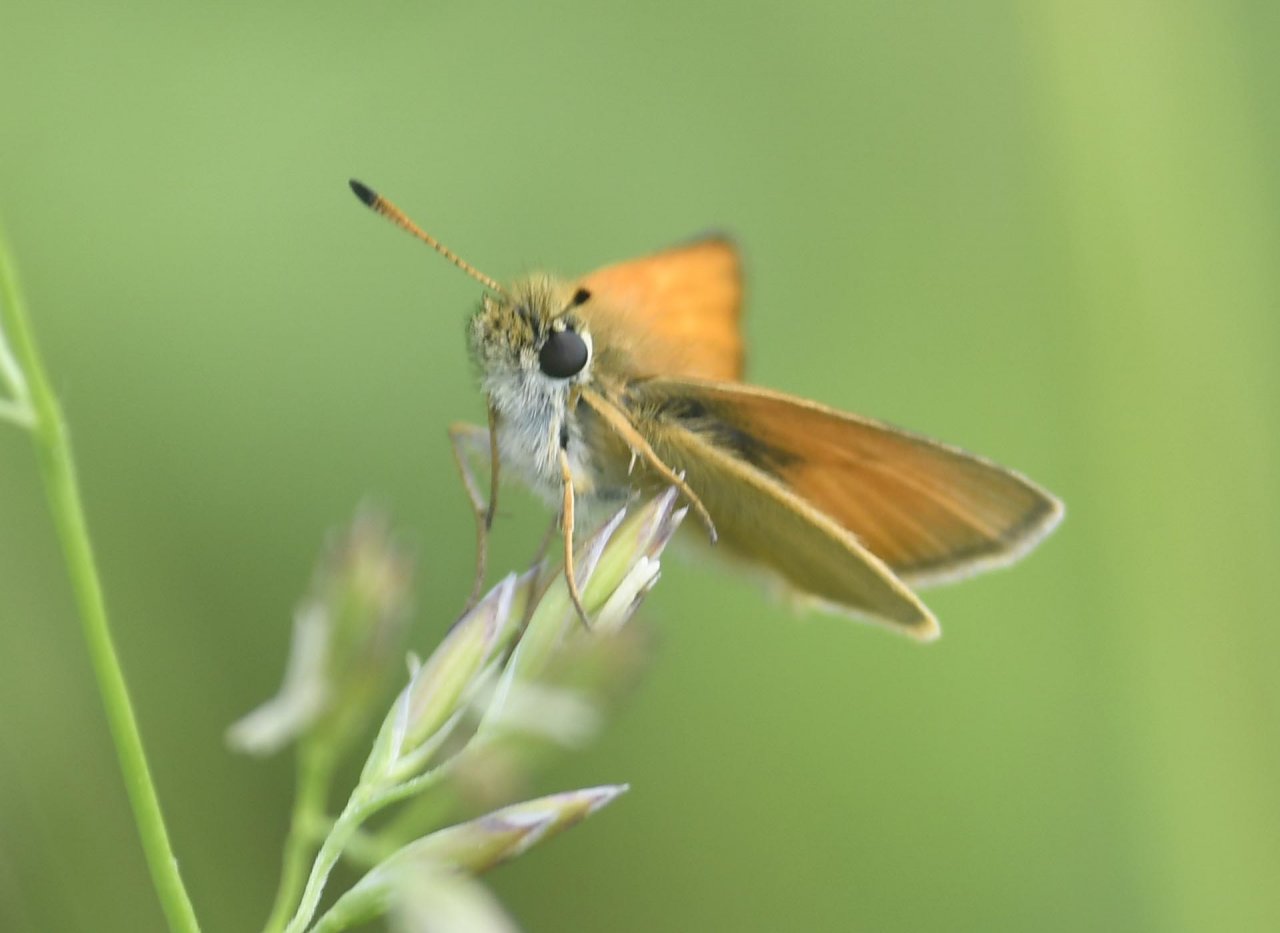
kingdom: Animalia
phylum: Arthropoda
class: Insecta
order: Lepidoptera
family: Hesperiidae
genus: Thymelicus
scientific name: Thymelicus lineola
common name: European Skipper
